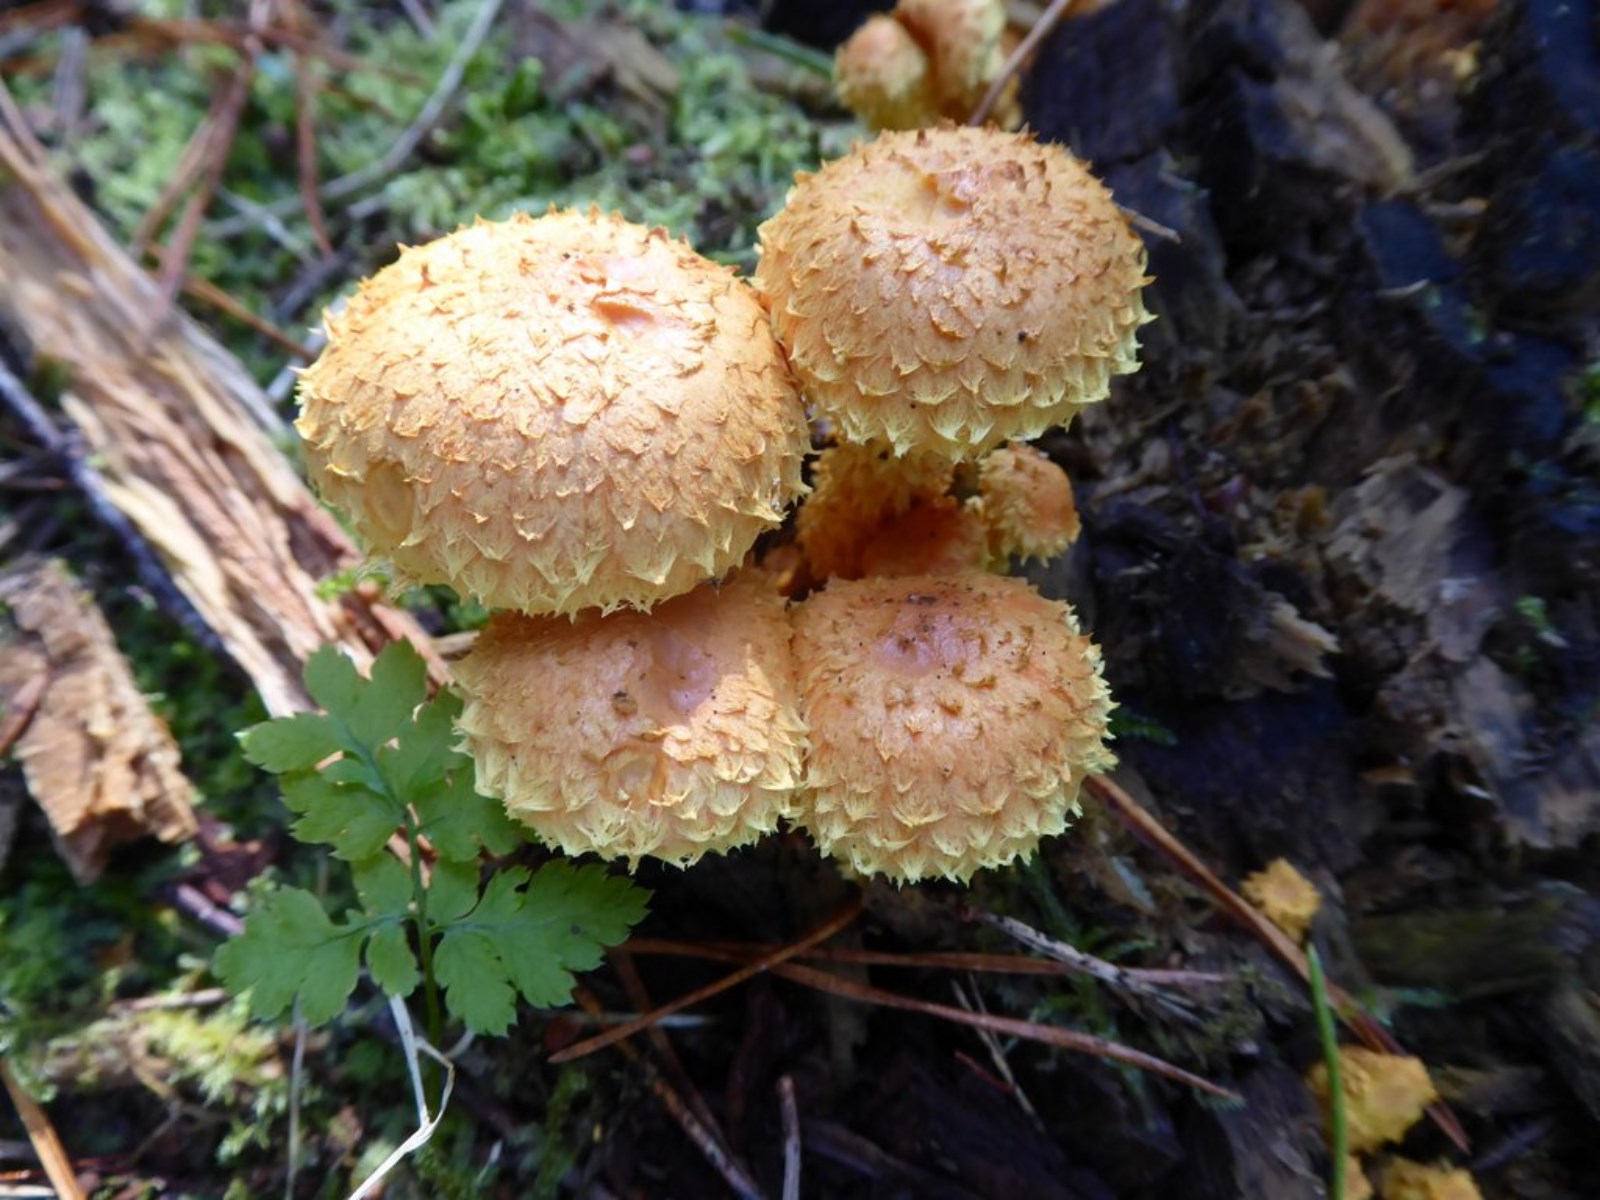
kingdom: Fungi
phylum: Basidiomycota
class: Agaricomycetes
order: Agaricales
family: Strophariaceae
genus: Pholiota
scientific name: Pholiota flammans
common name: flamme-skælhat
